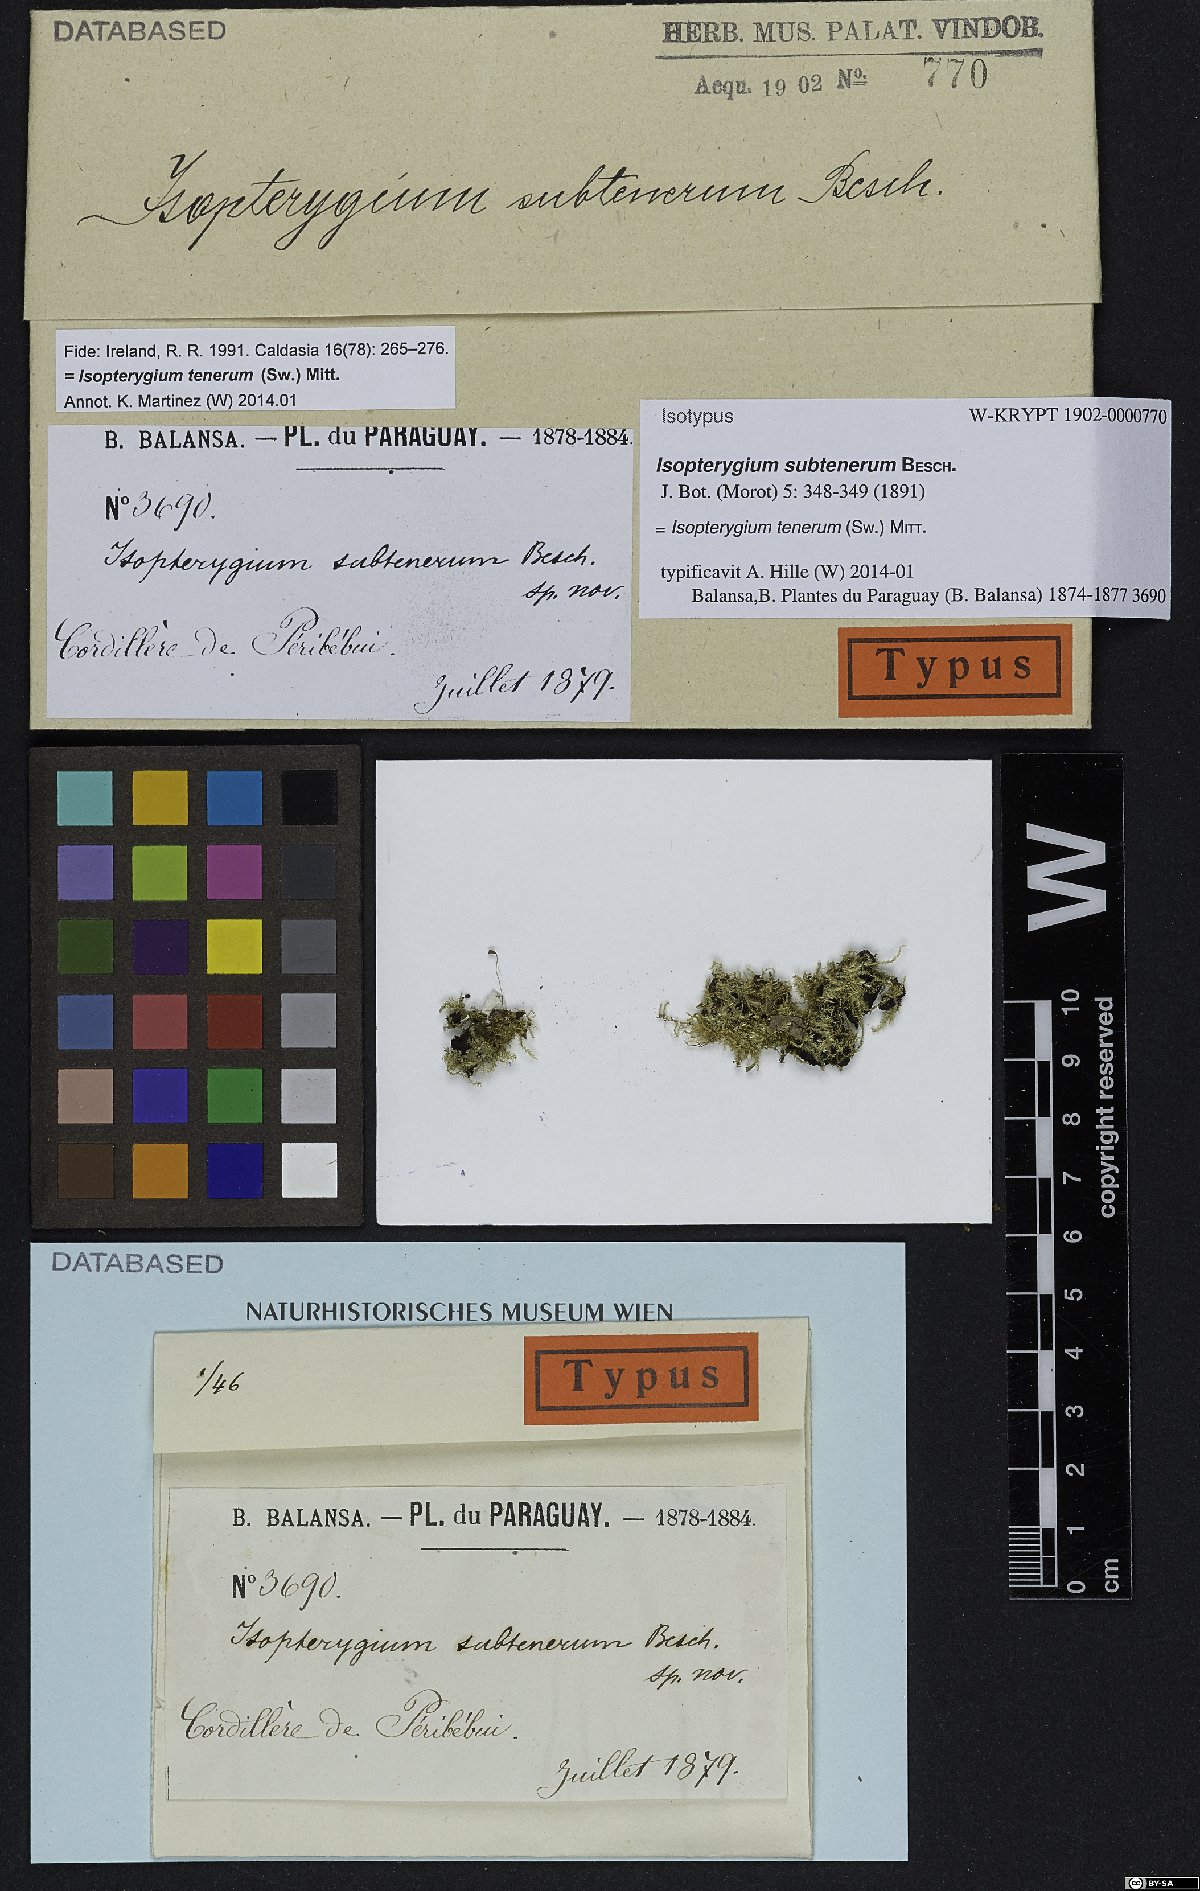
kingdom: Plantae
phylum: Bryophyta
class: Bryopsida
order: Hypnales
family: Pylaisiadelphaceae
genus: Isopterygium
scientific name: Isopterygium tenerum
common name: Isopterygium moss
